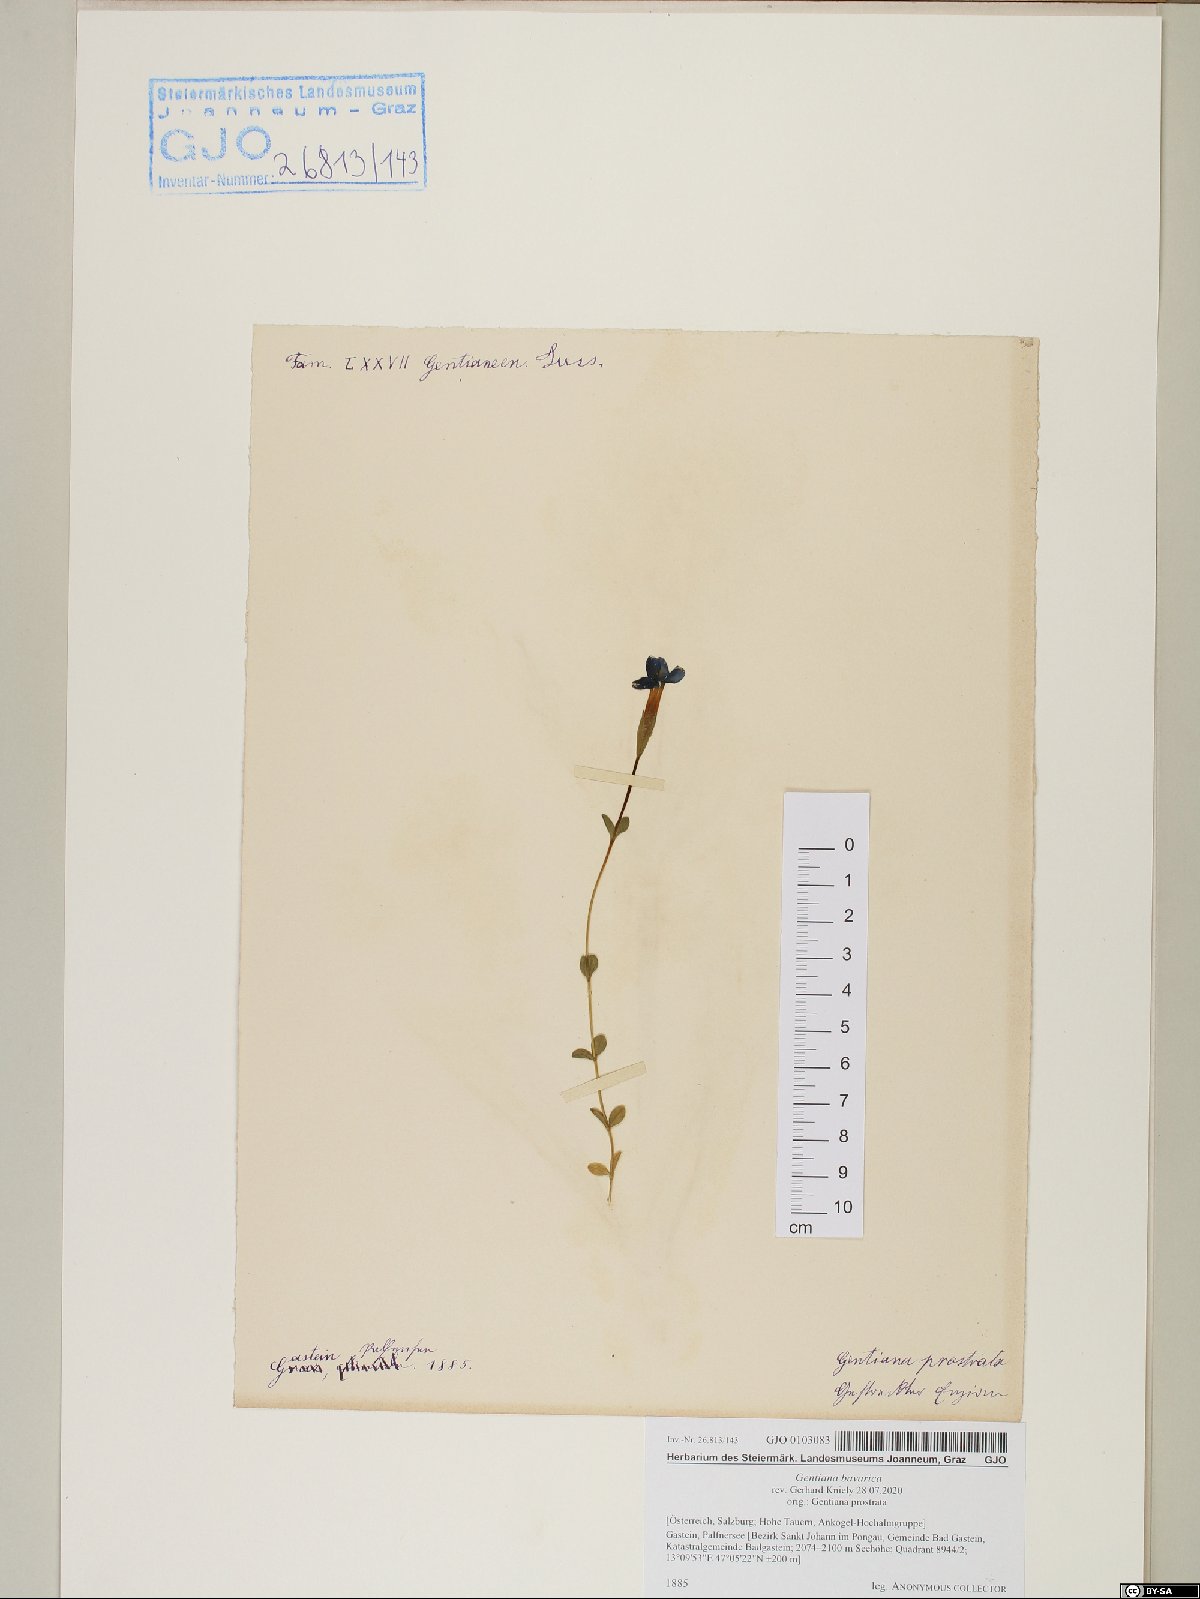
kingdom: Plantae
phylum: Tracheophyta
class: Magnoliopsida
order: Gentianales
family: Gentianaceae
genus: Gentiana
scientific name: Gentiana bavarica
